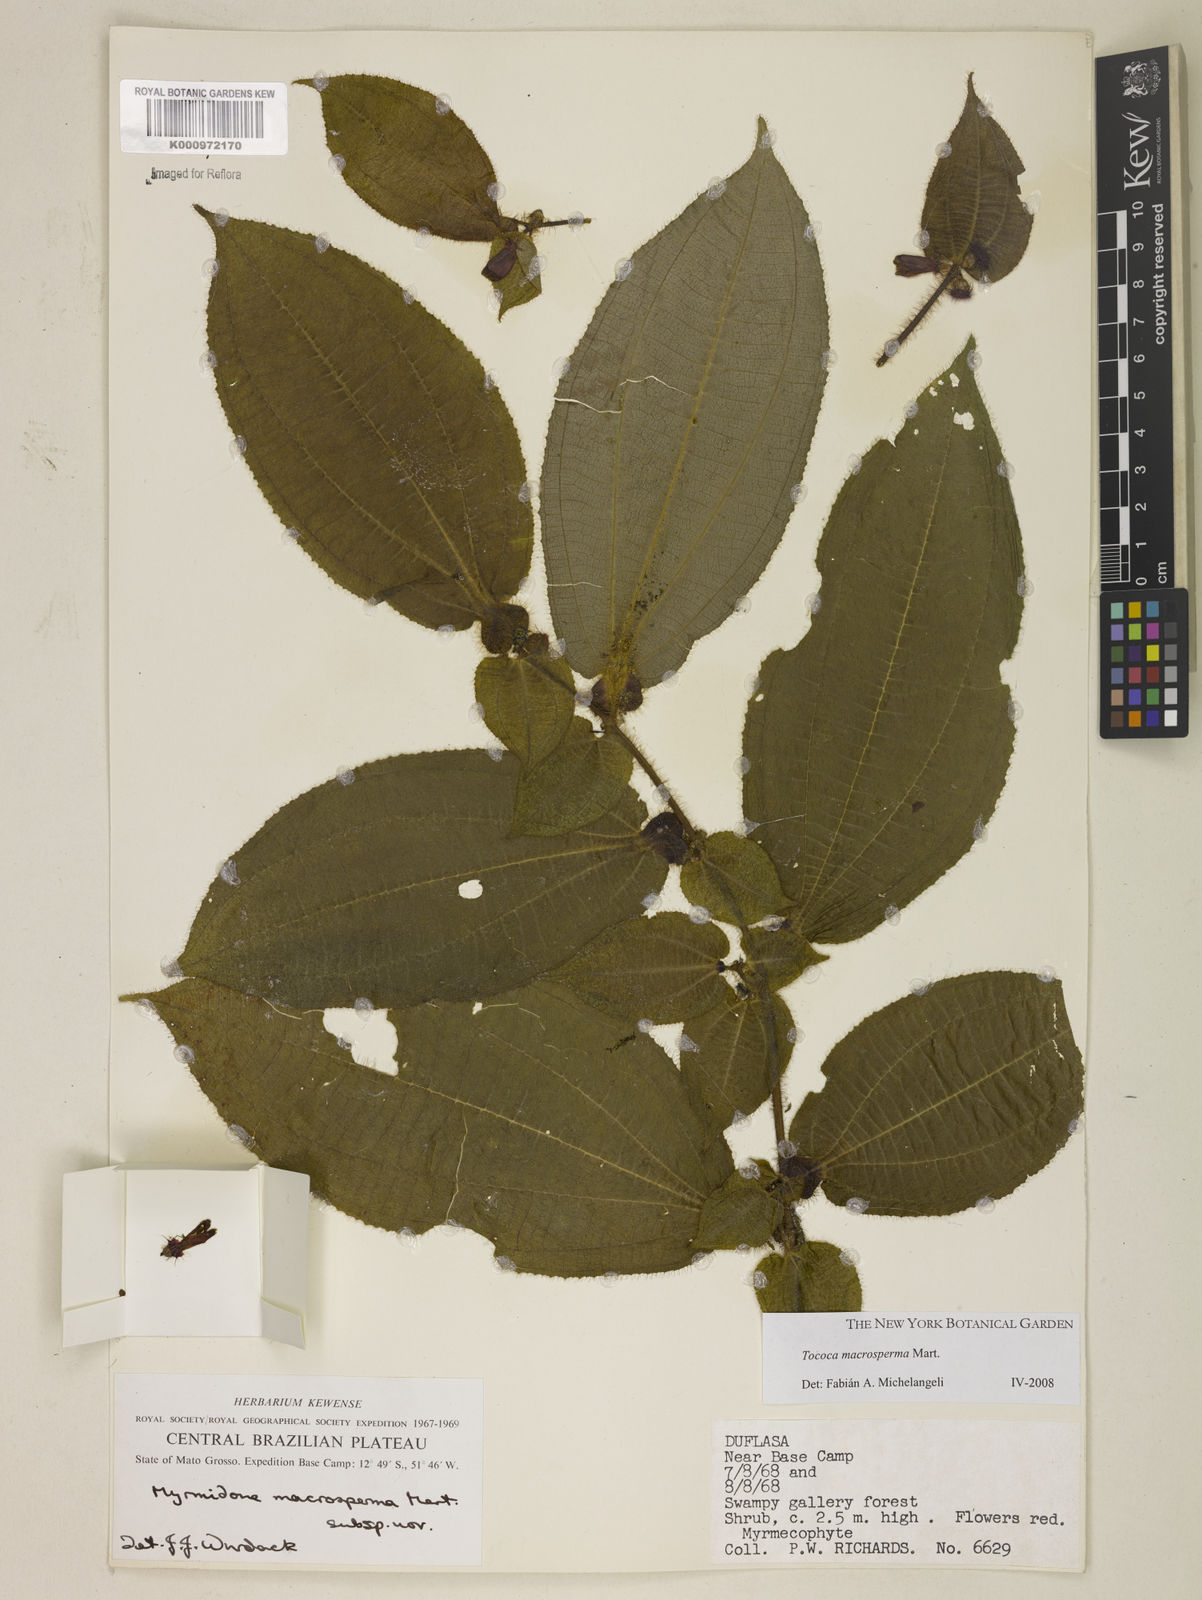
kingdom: Plantae
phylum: Tracheophyta
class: Magnoliopsida
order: Myrtales
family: Melastomataceae
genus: Miconia
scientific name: Miconia macrosperma
